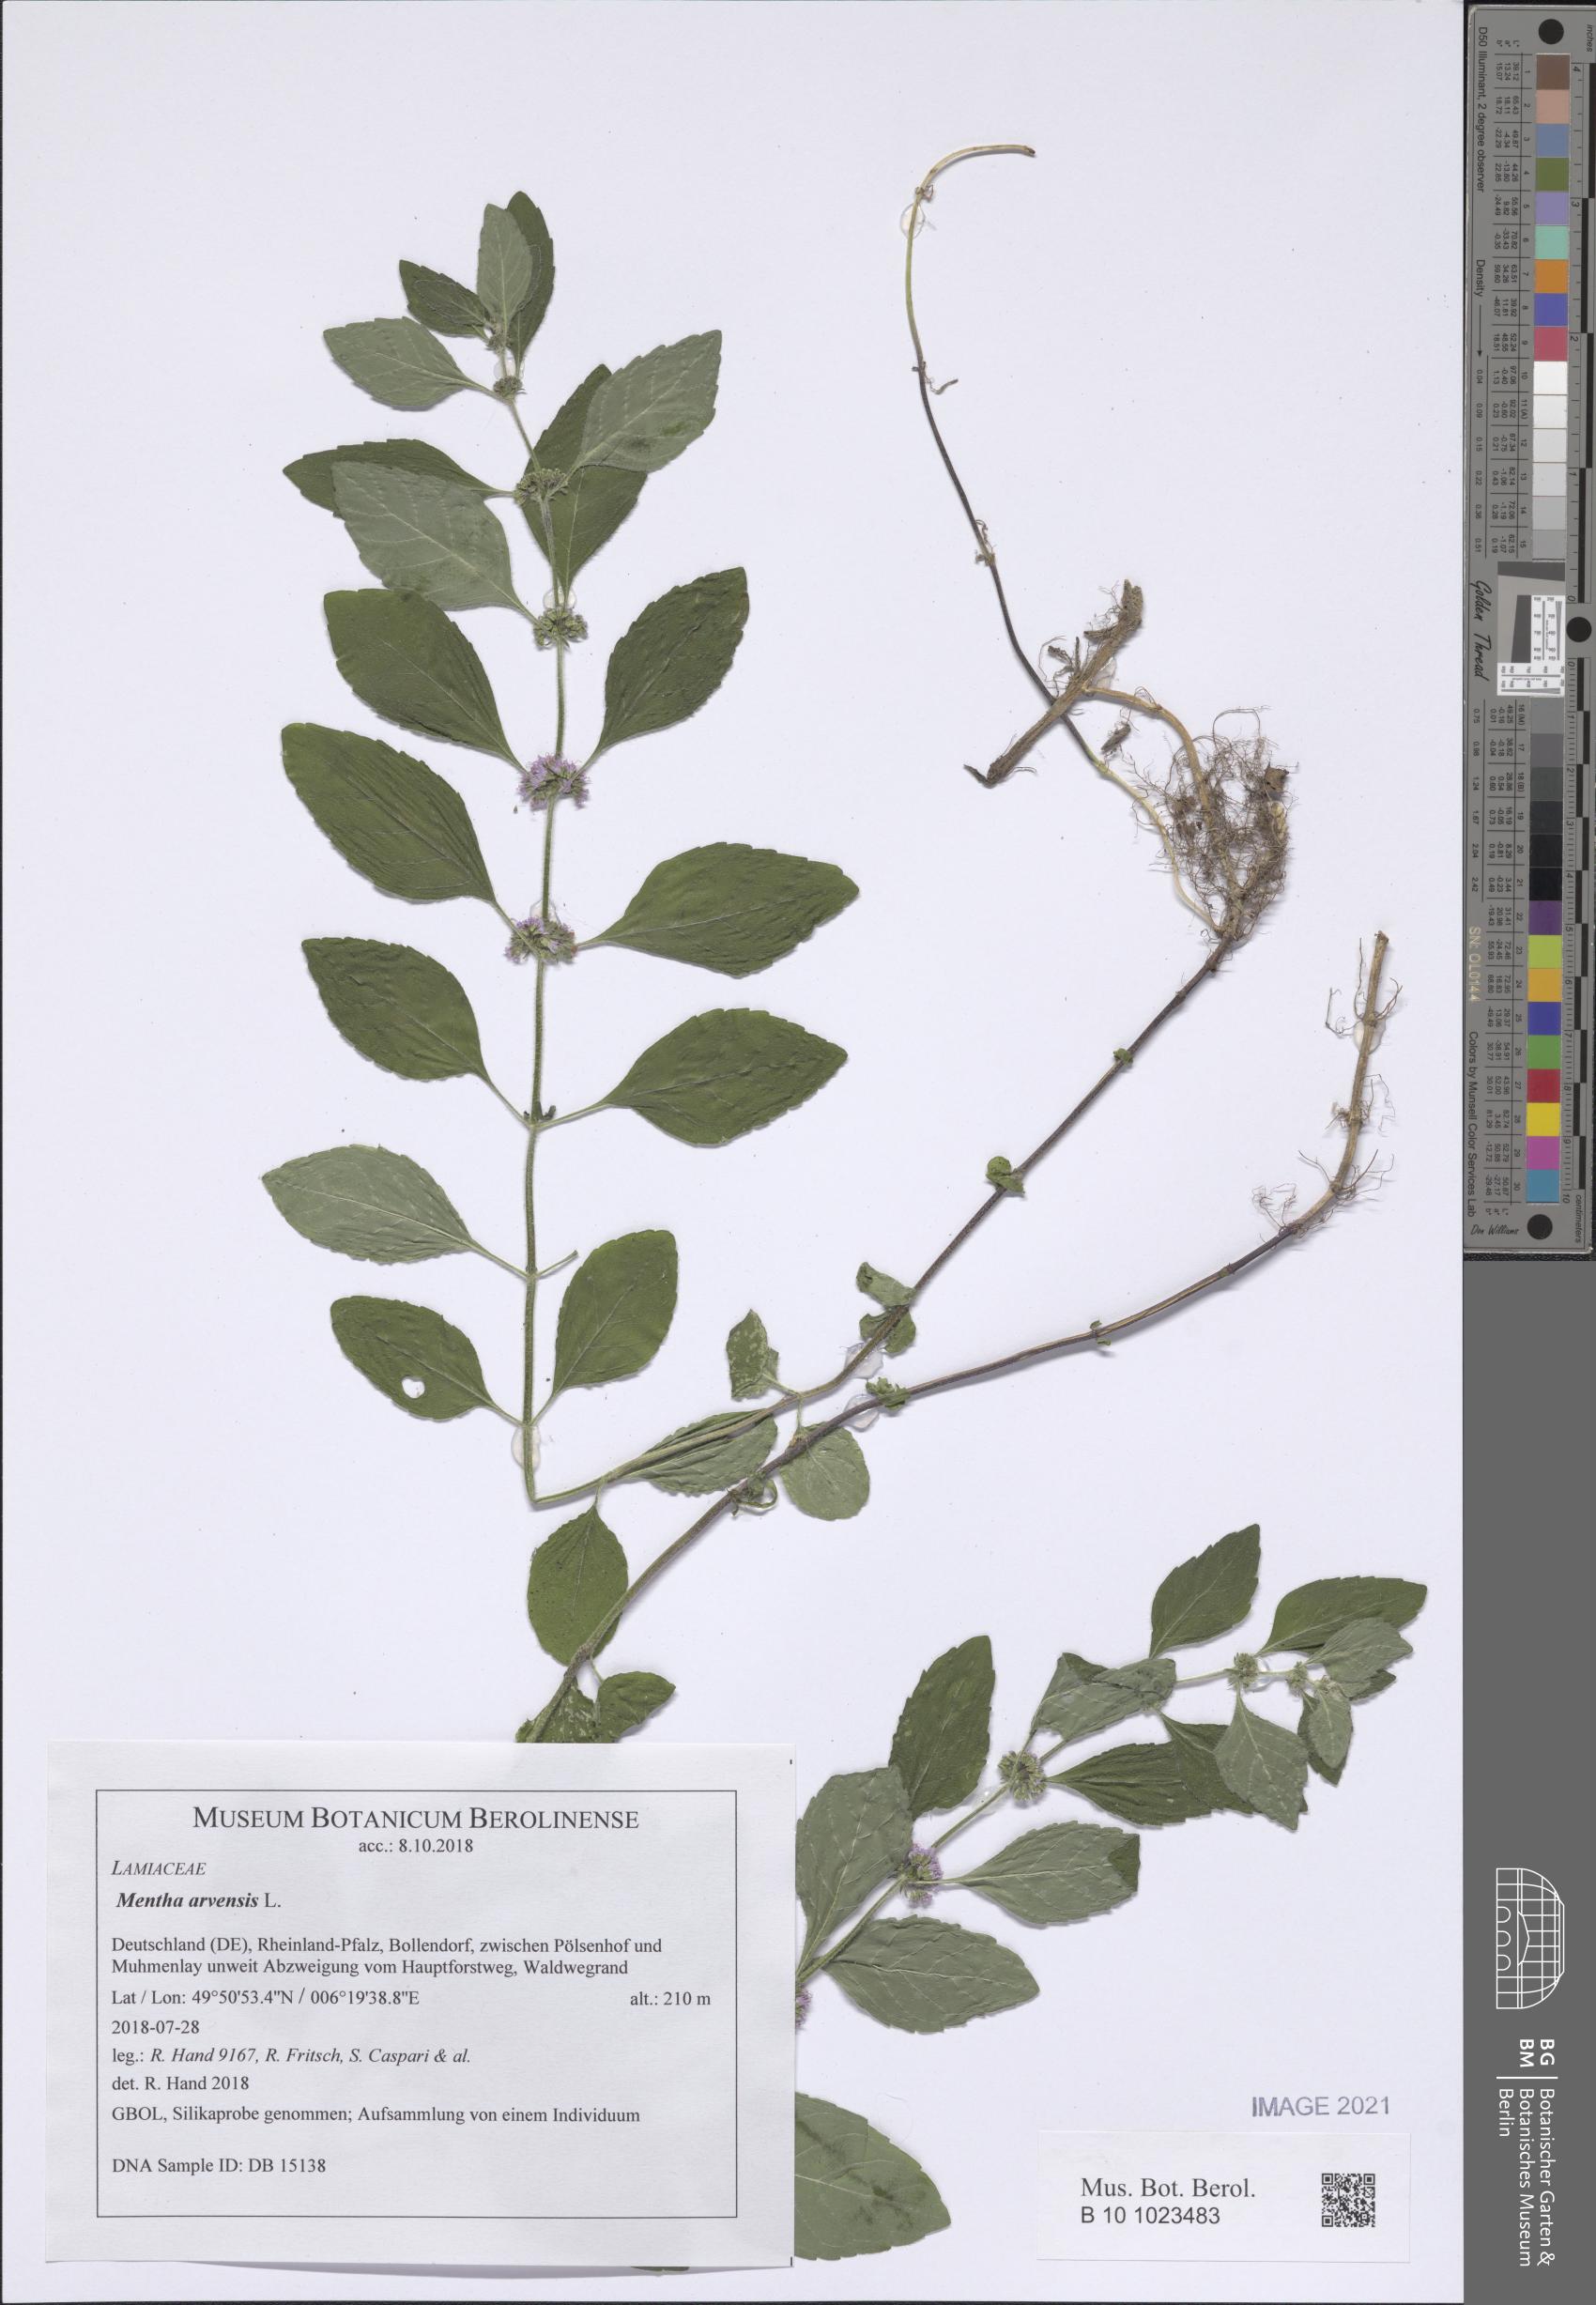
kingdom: Plantae
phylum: Tracheophyta
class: Magnoliopsida
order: Lamiales
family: Lamiaceae
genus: Mentha
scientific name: Mentha arvensis
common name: Corn mint
